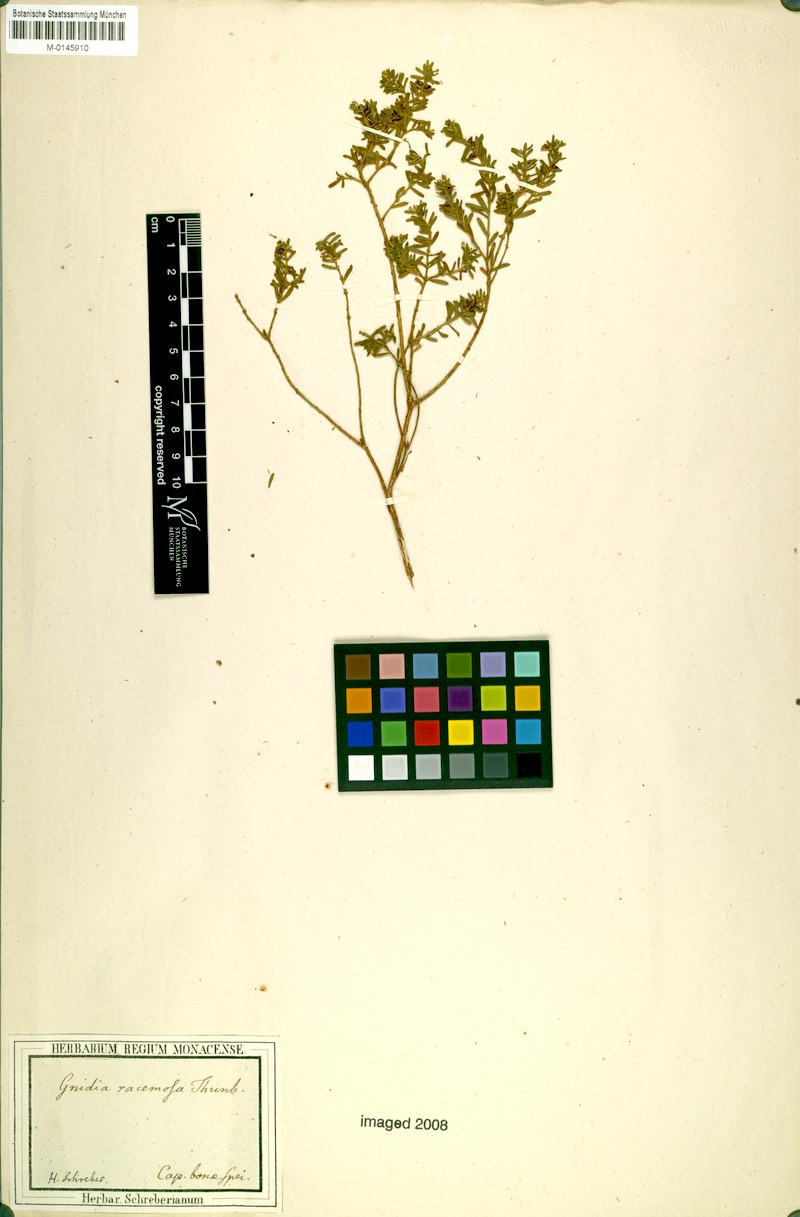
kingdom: Plantae
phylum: Tracheophyta
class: Magnoliopsida
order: Malvales
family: Thymelaeaceae
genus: Gnidia
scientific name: Gnidia racemosa
